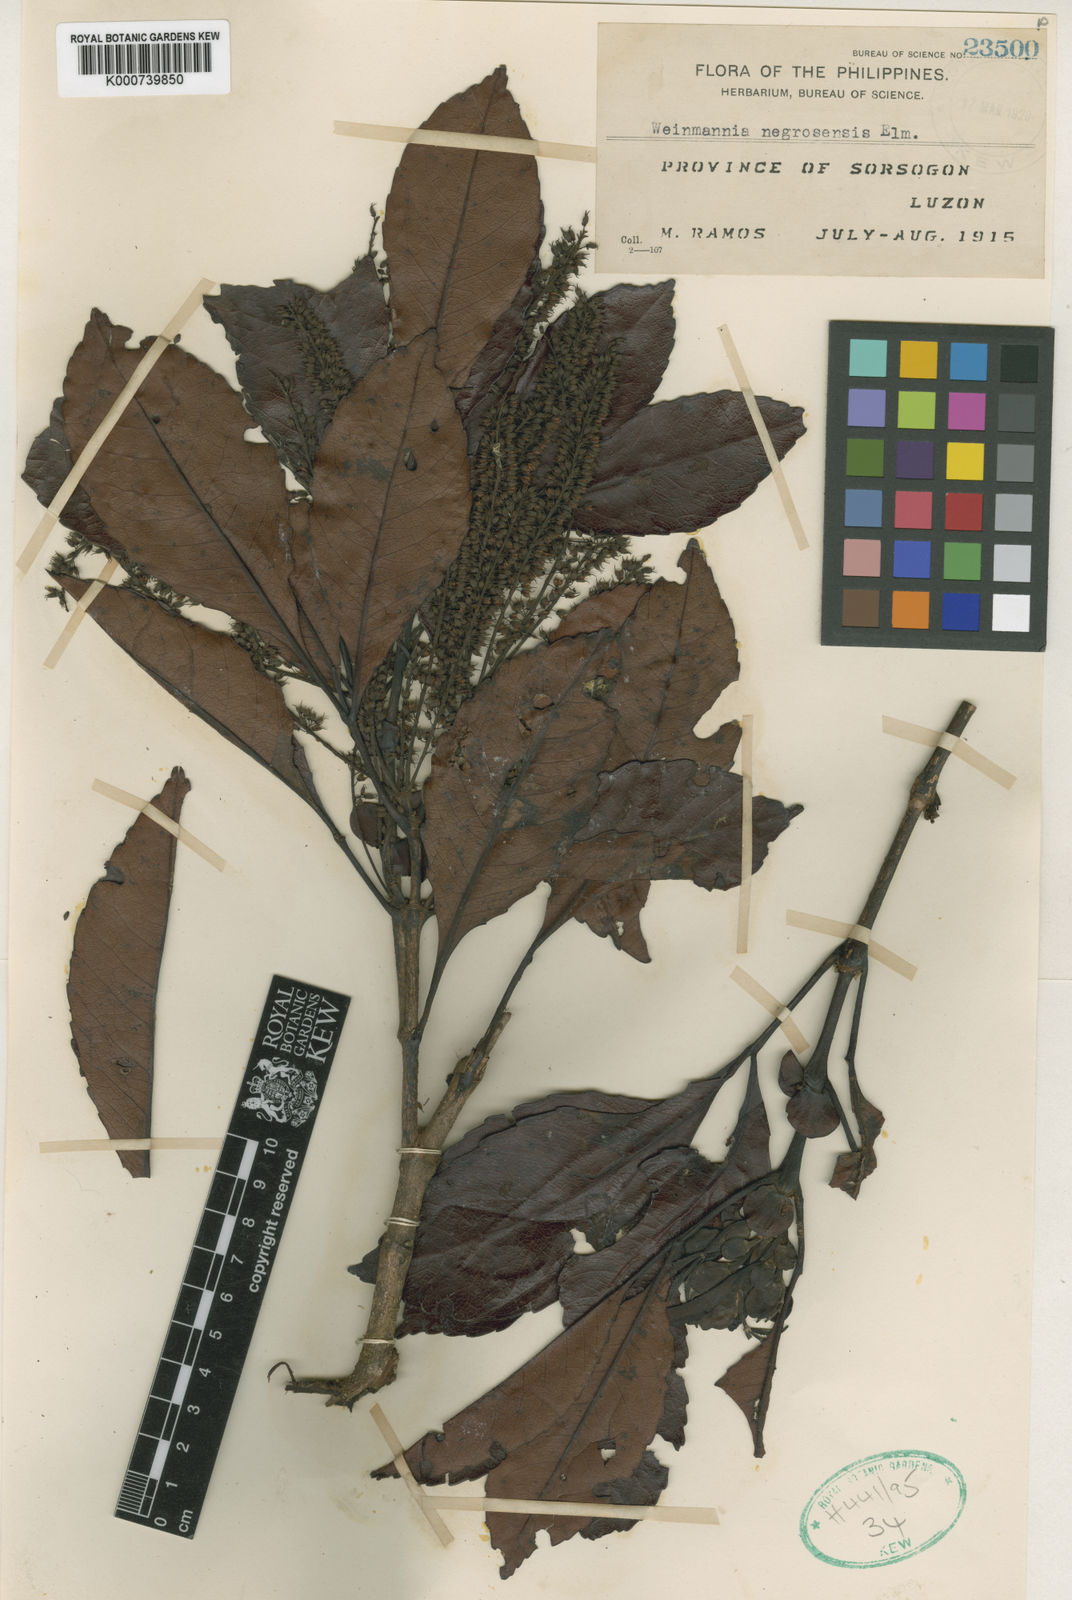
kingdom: Plantae
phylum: Tracheophyta
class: Magnoliopsida
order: Oxalidales
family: Cunoniaceae
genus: Pterophylla
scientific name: Pterophylla negrosensis
